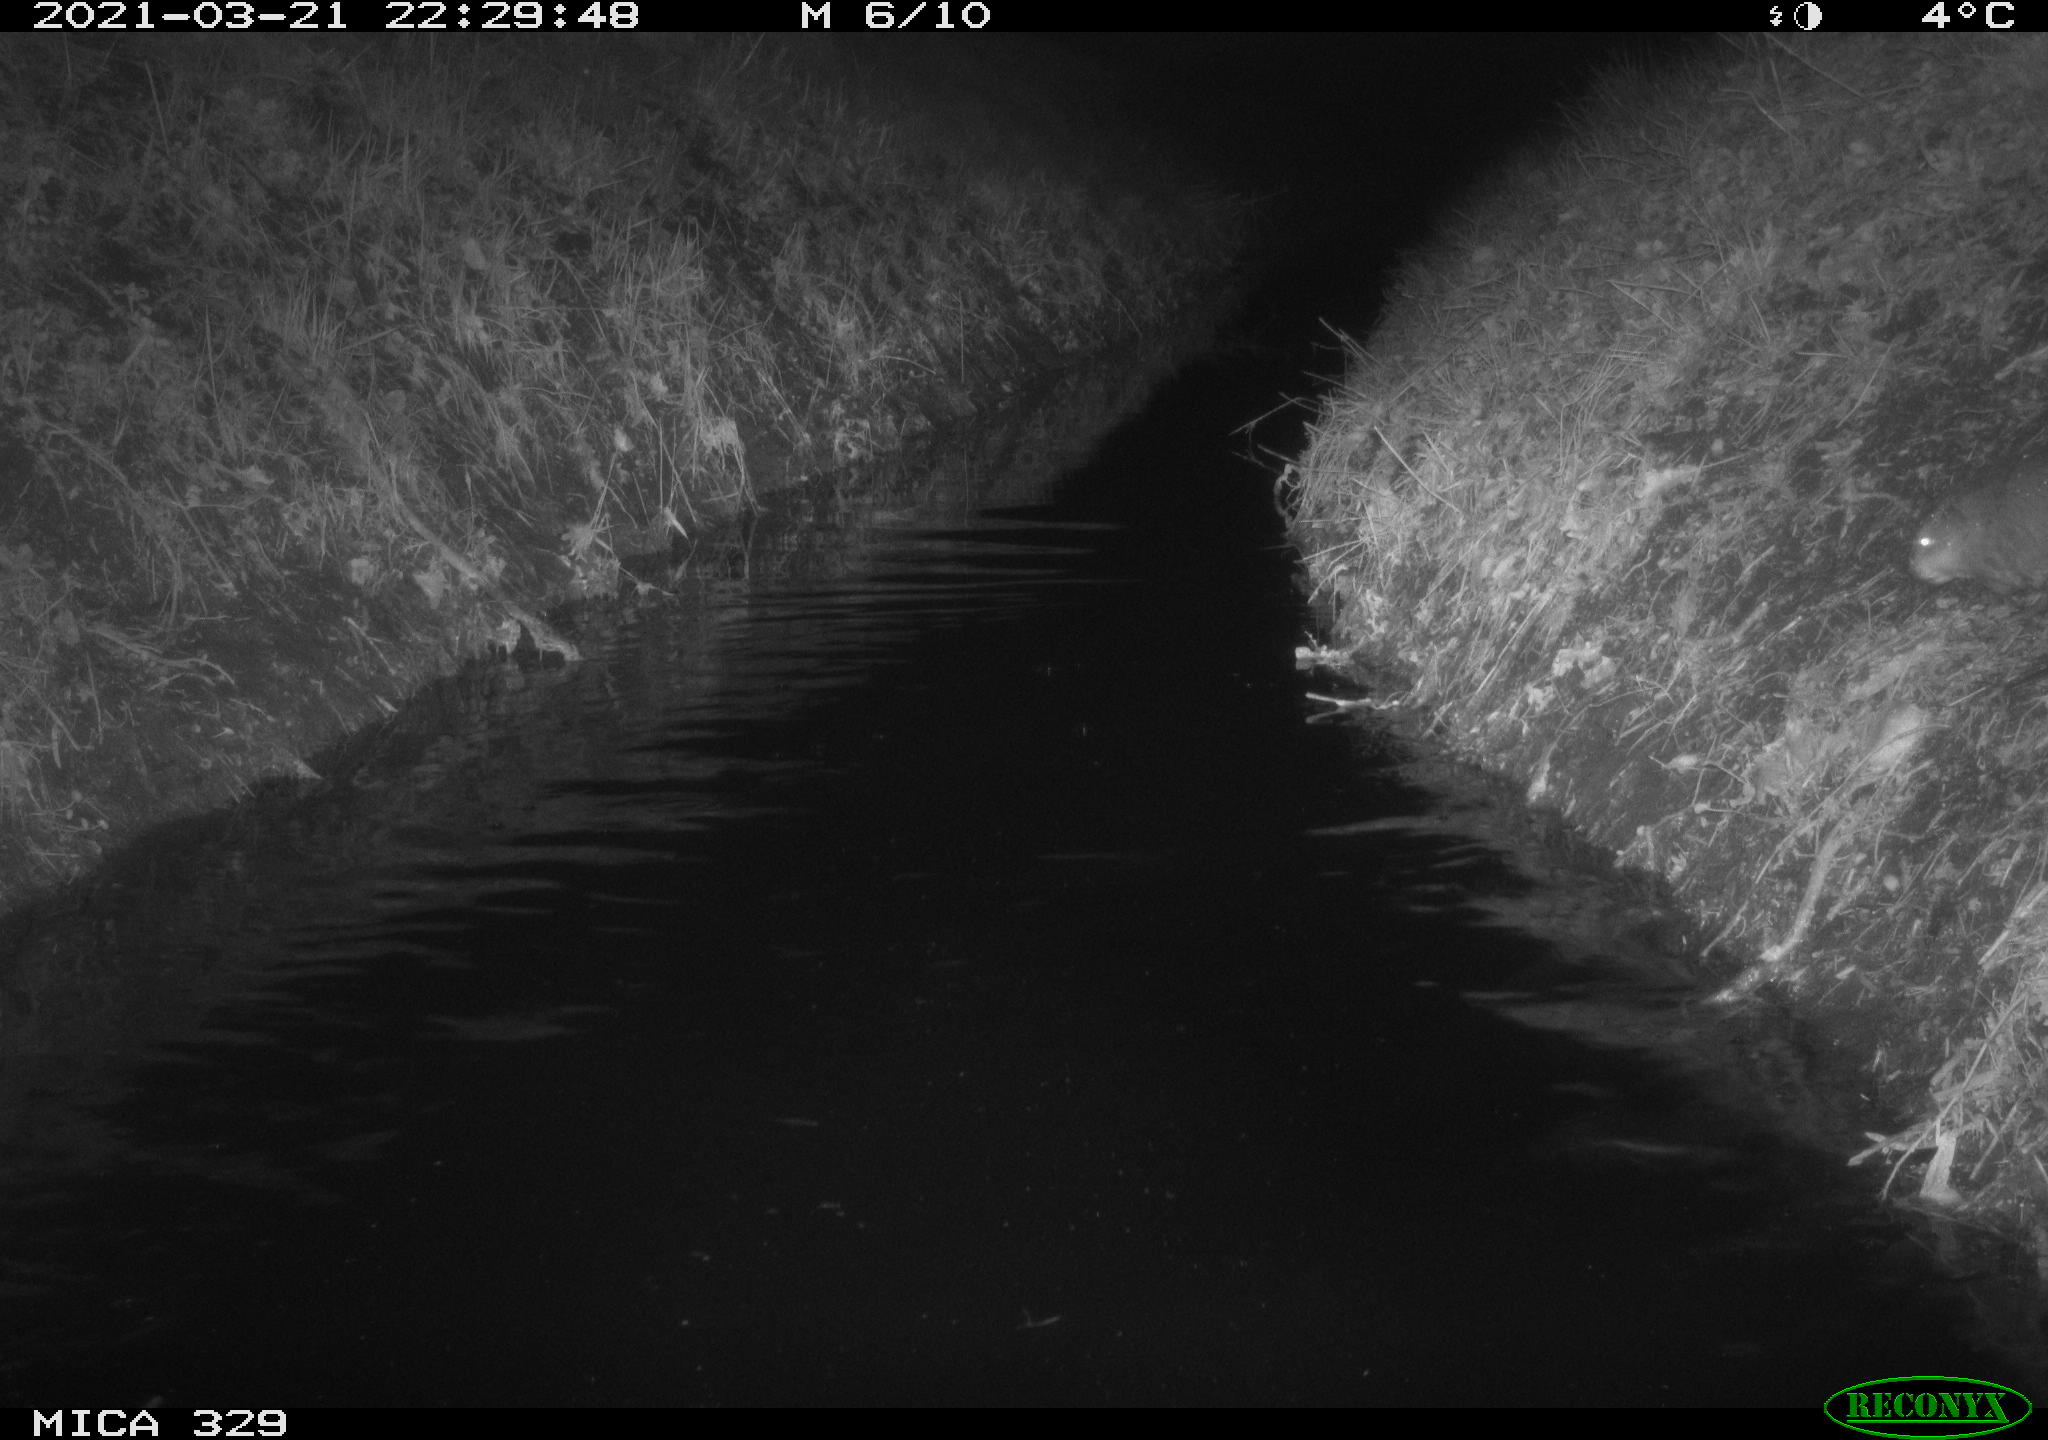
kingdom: Animalia
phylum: Chordata
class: Mammalia
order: Rodentia
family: Cricetidae
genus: Ondatra
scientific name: Ondatra zibethicus
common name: Muskrat
